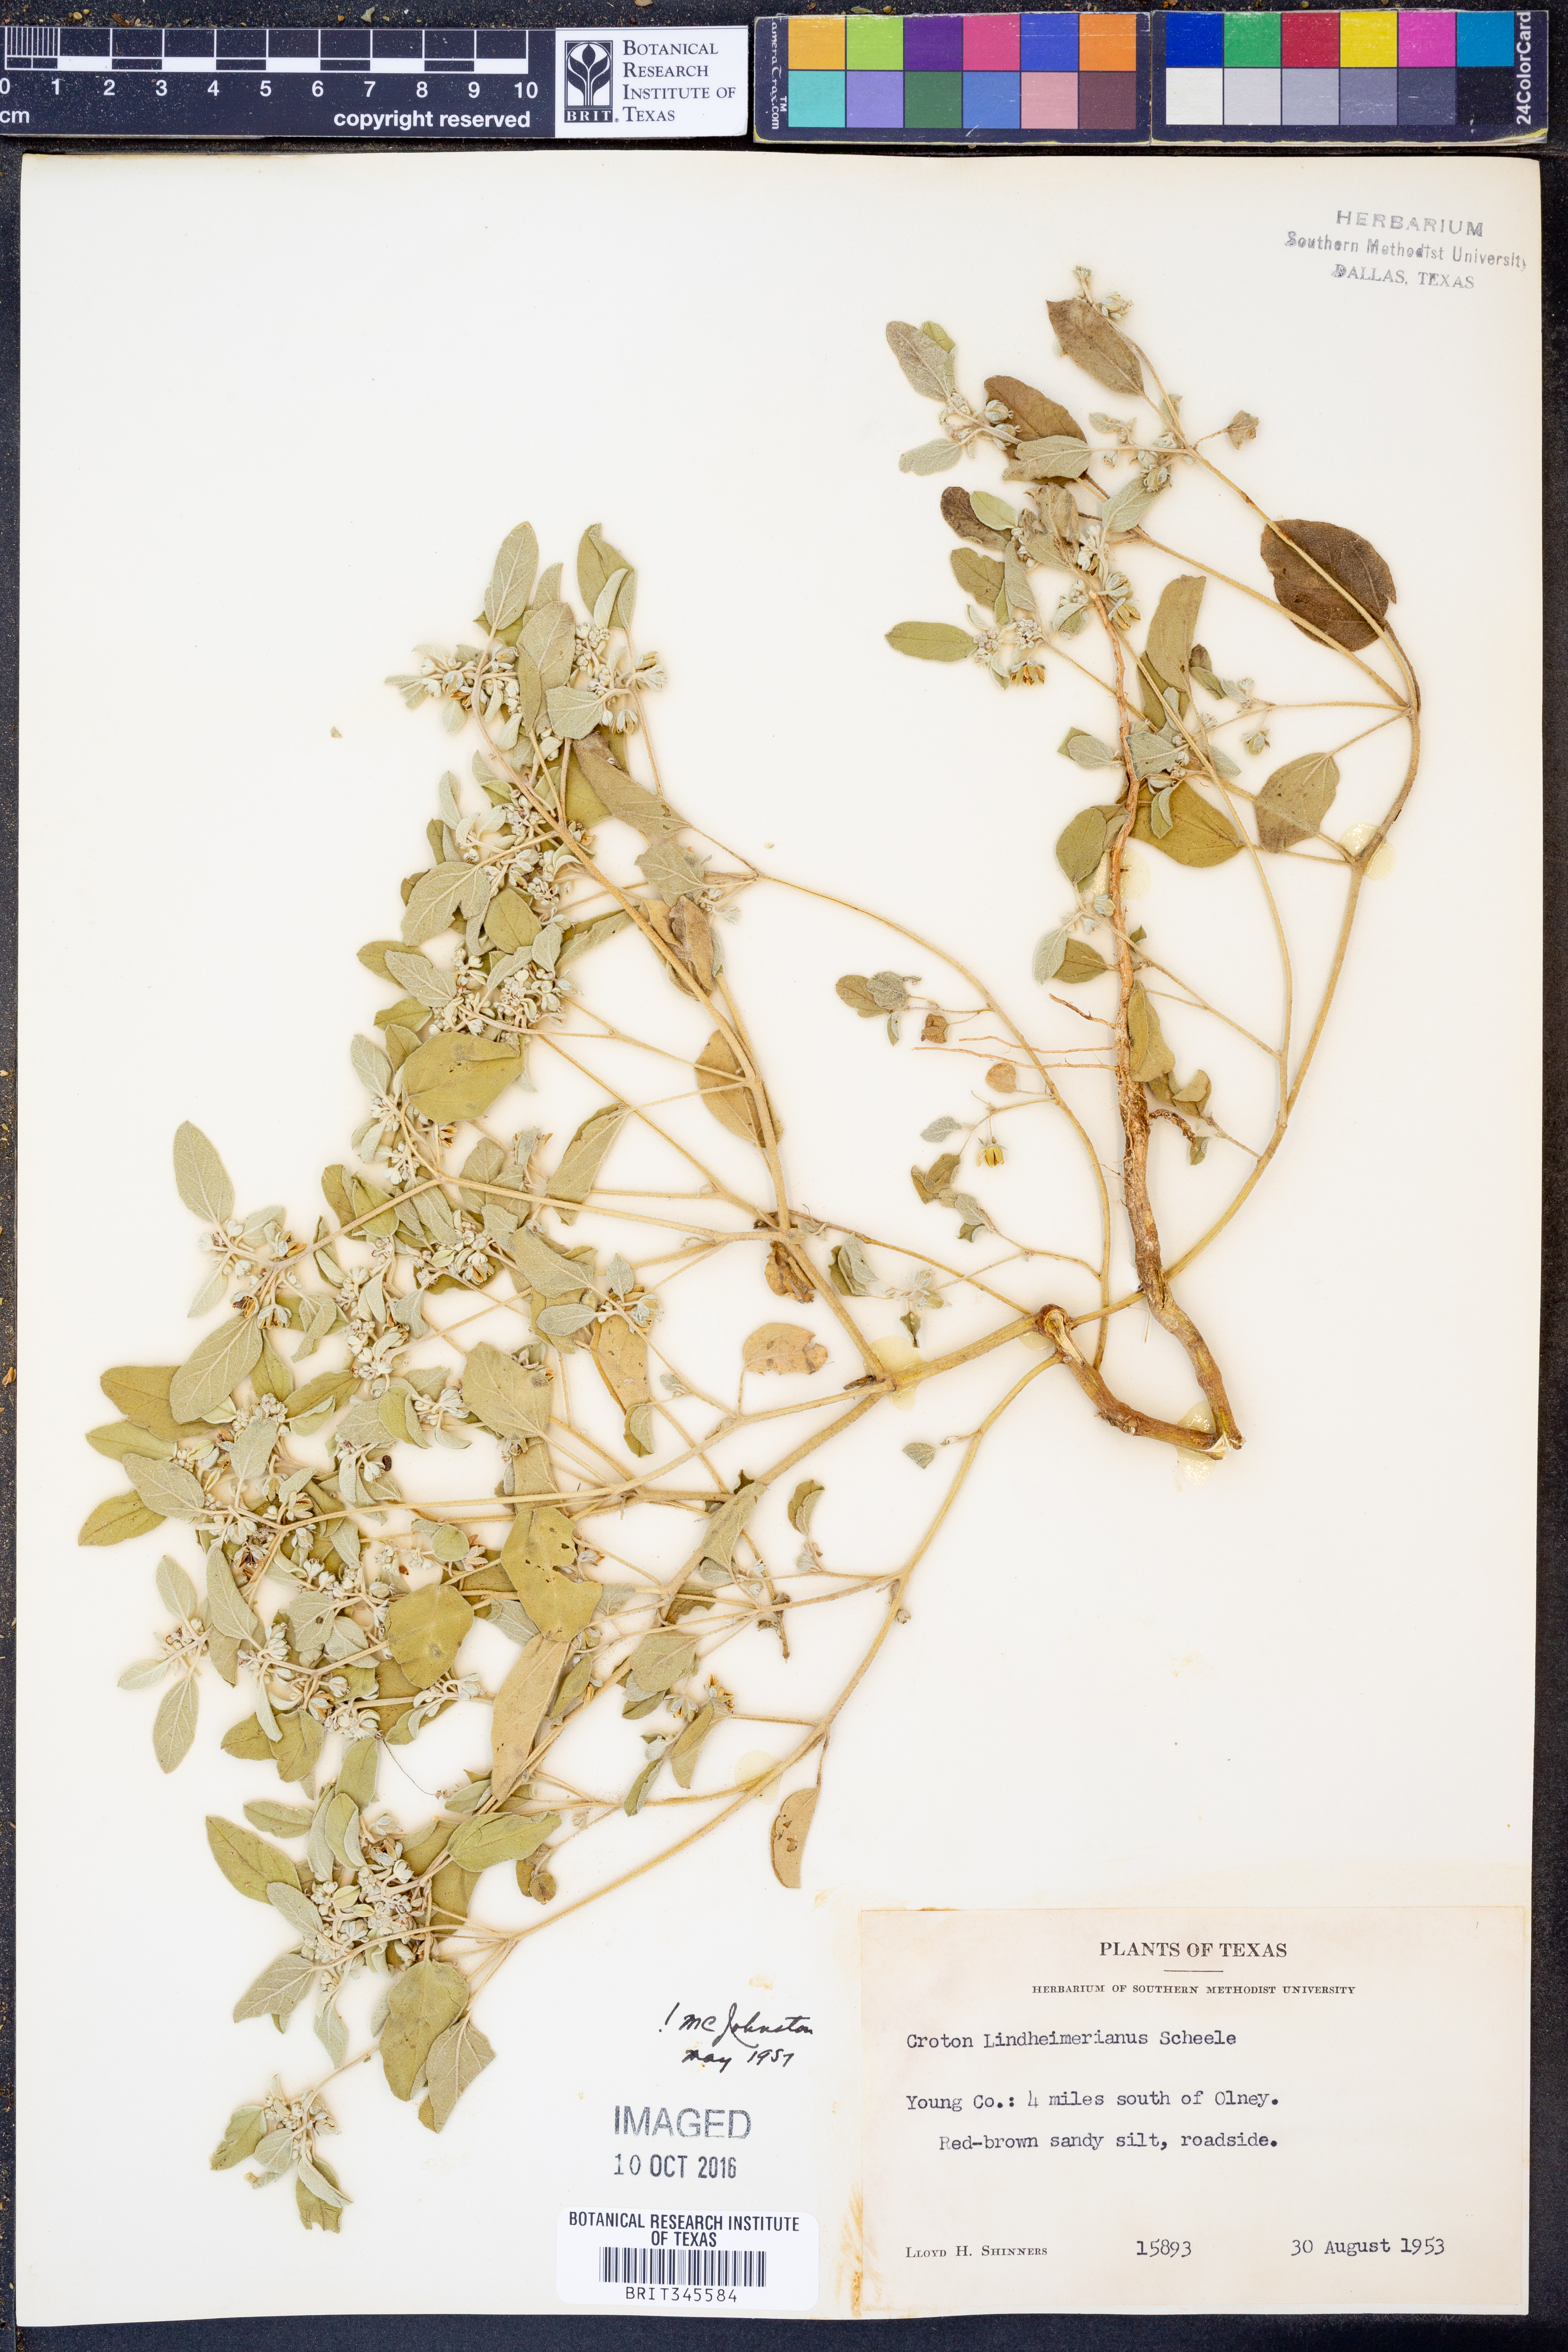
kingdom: Plantae
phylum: Tracheophyta
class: Magnoliopsida
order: Malpighiales
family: Euphorbiaceae
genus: Croton
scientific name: Croton lindheimerianus
